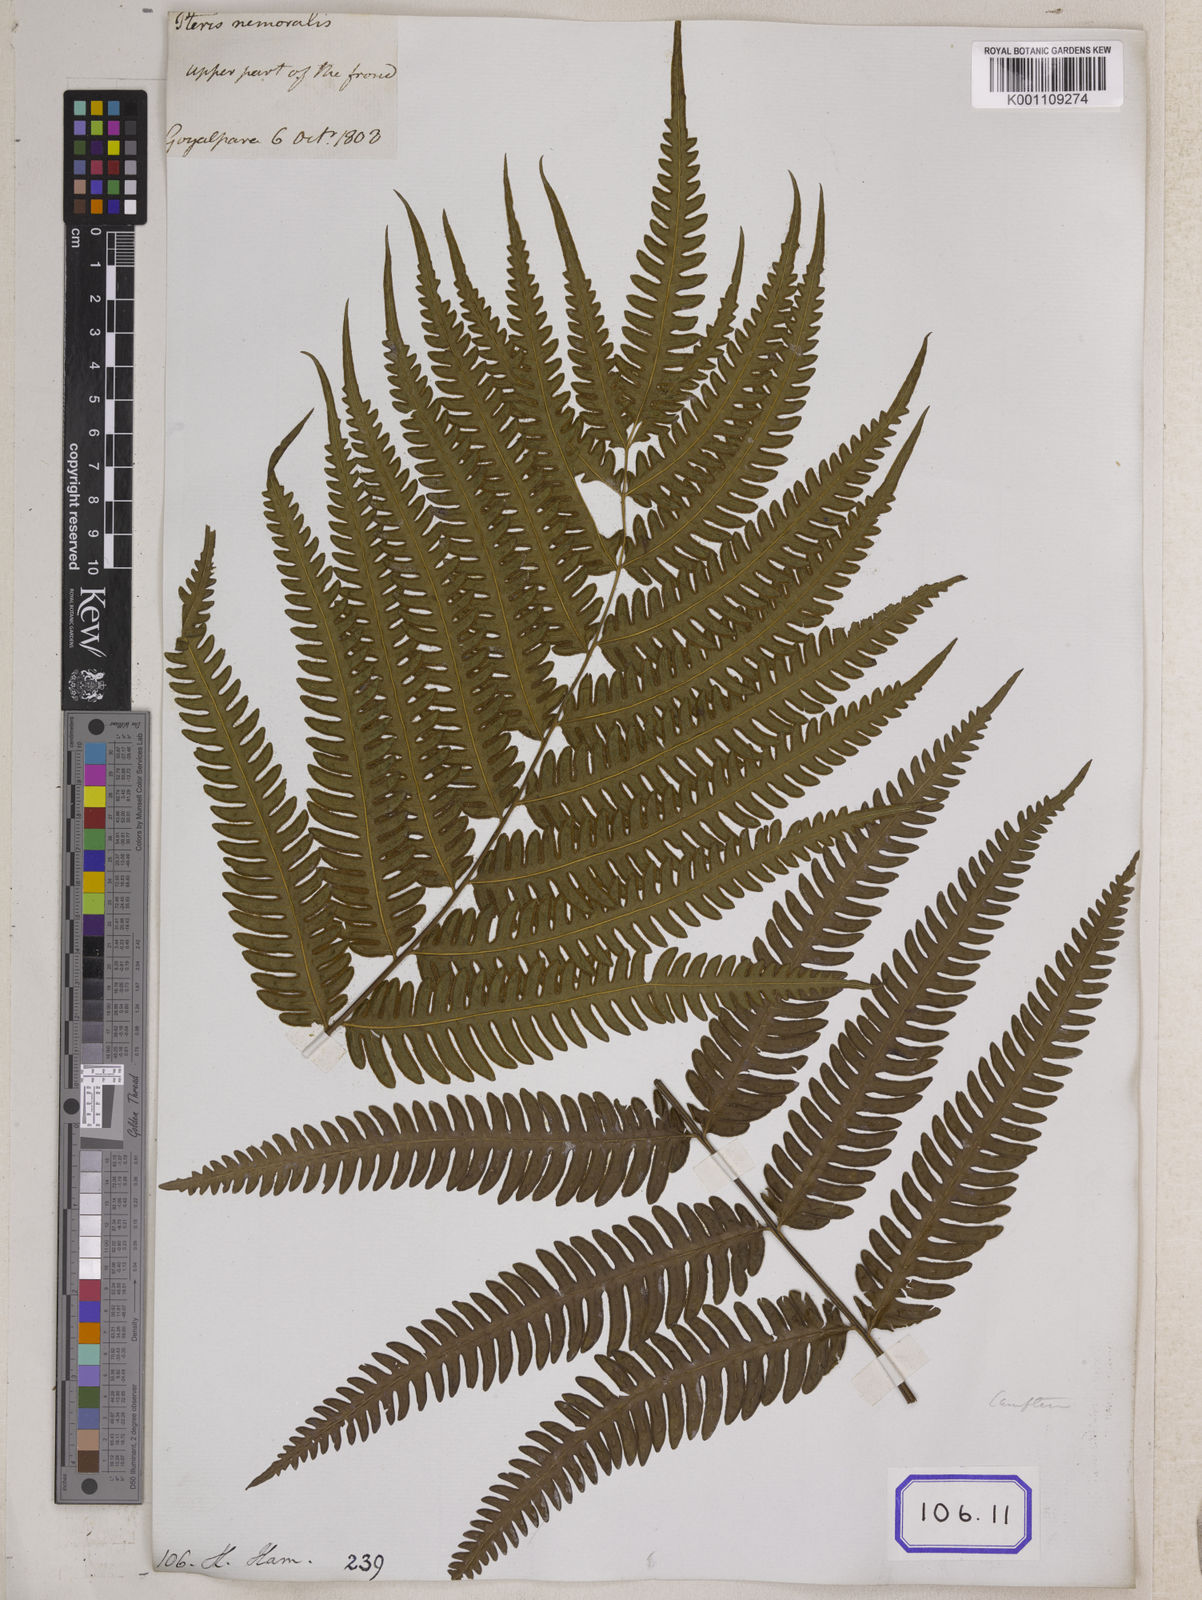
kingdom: Plantae
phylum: Tracheophyta
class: Polypodiopsida
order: Polypodiales
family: Pteridaceae
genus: Pteris
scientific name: Pteris linearis
